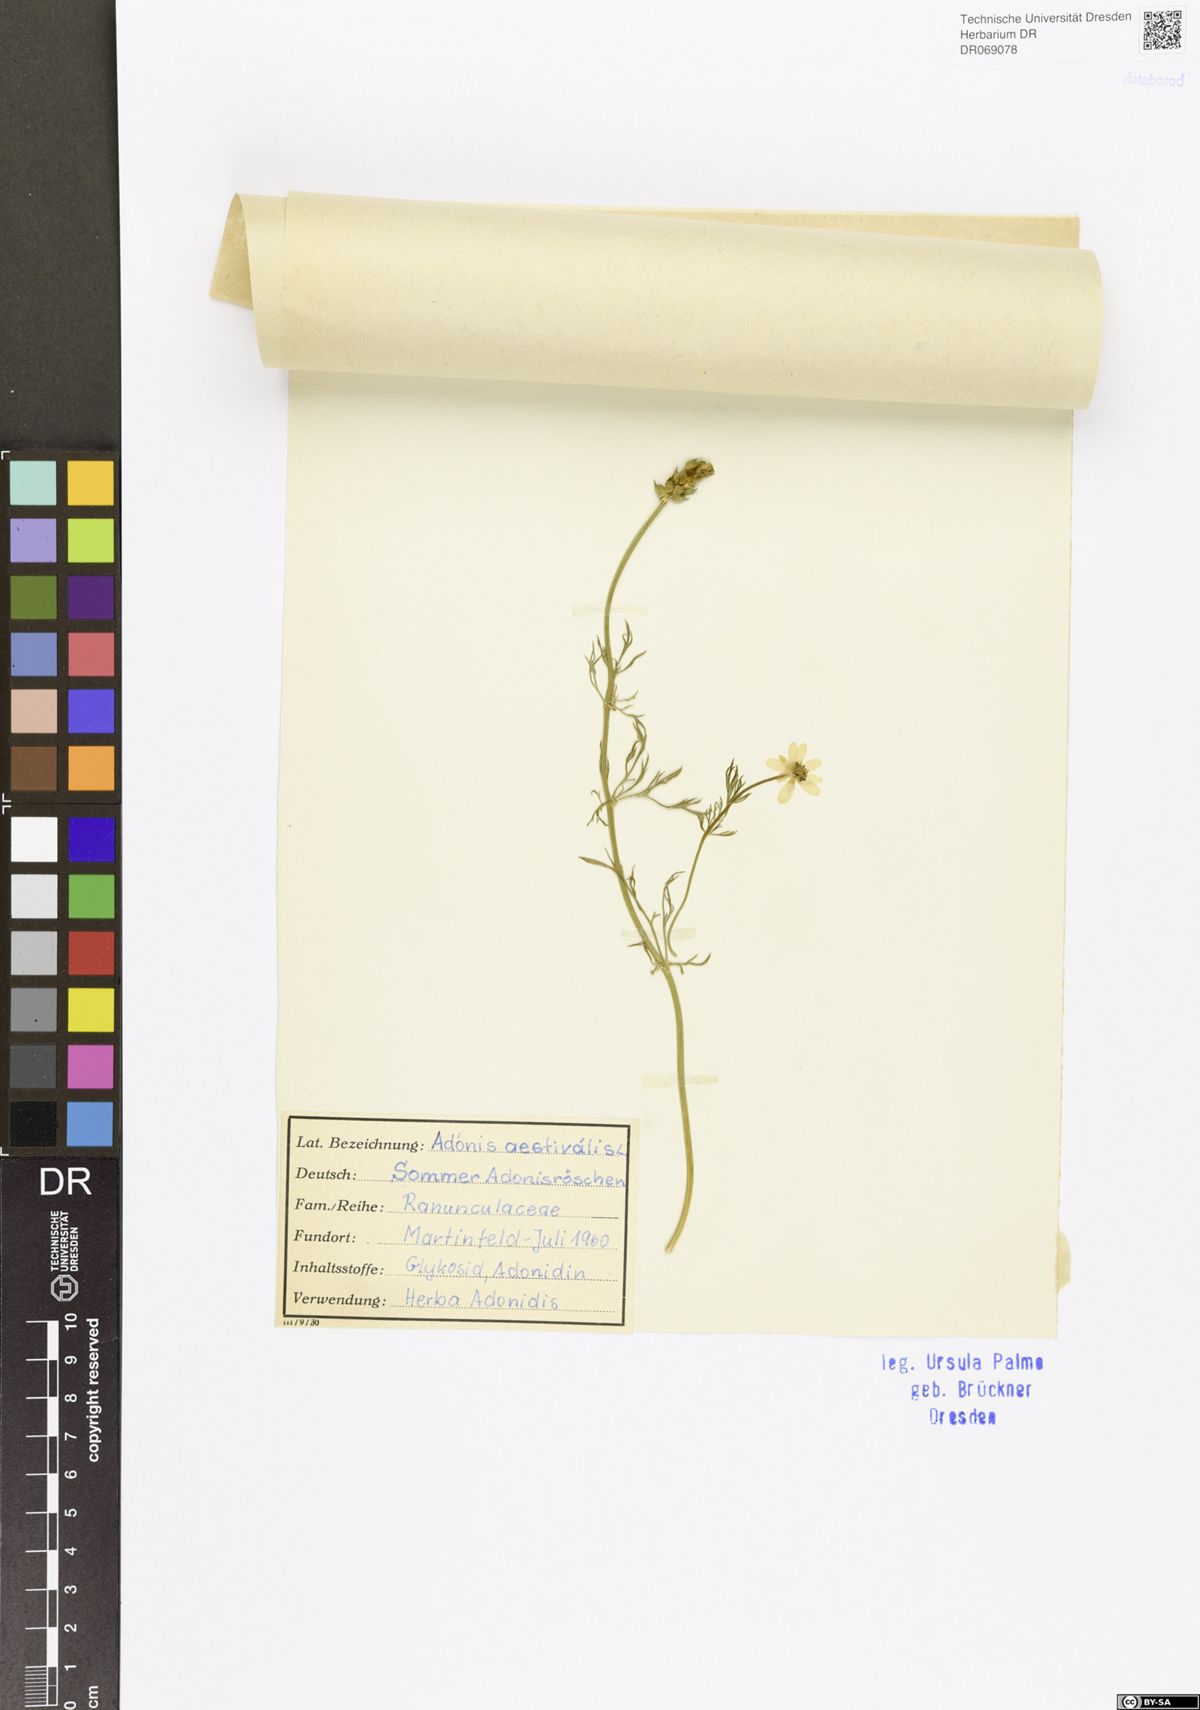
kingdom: Plantae
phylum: Tracheophyta
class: Magnoliopsida
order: Ranunculales
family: Ranunculaceae
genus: Adonis
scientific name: Adonis aestivalis
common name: Summer pheasant's-eye
